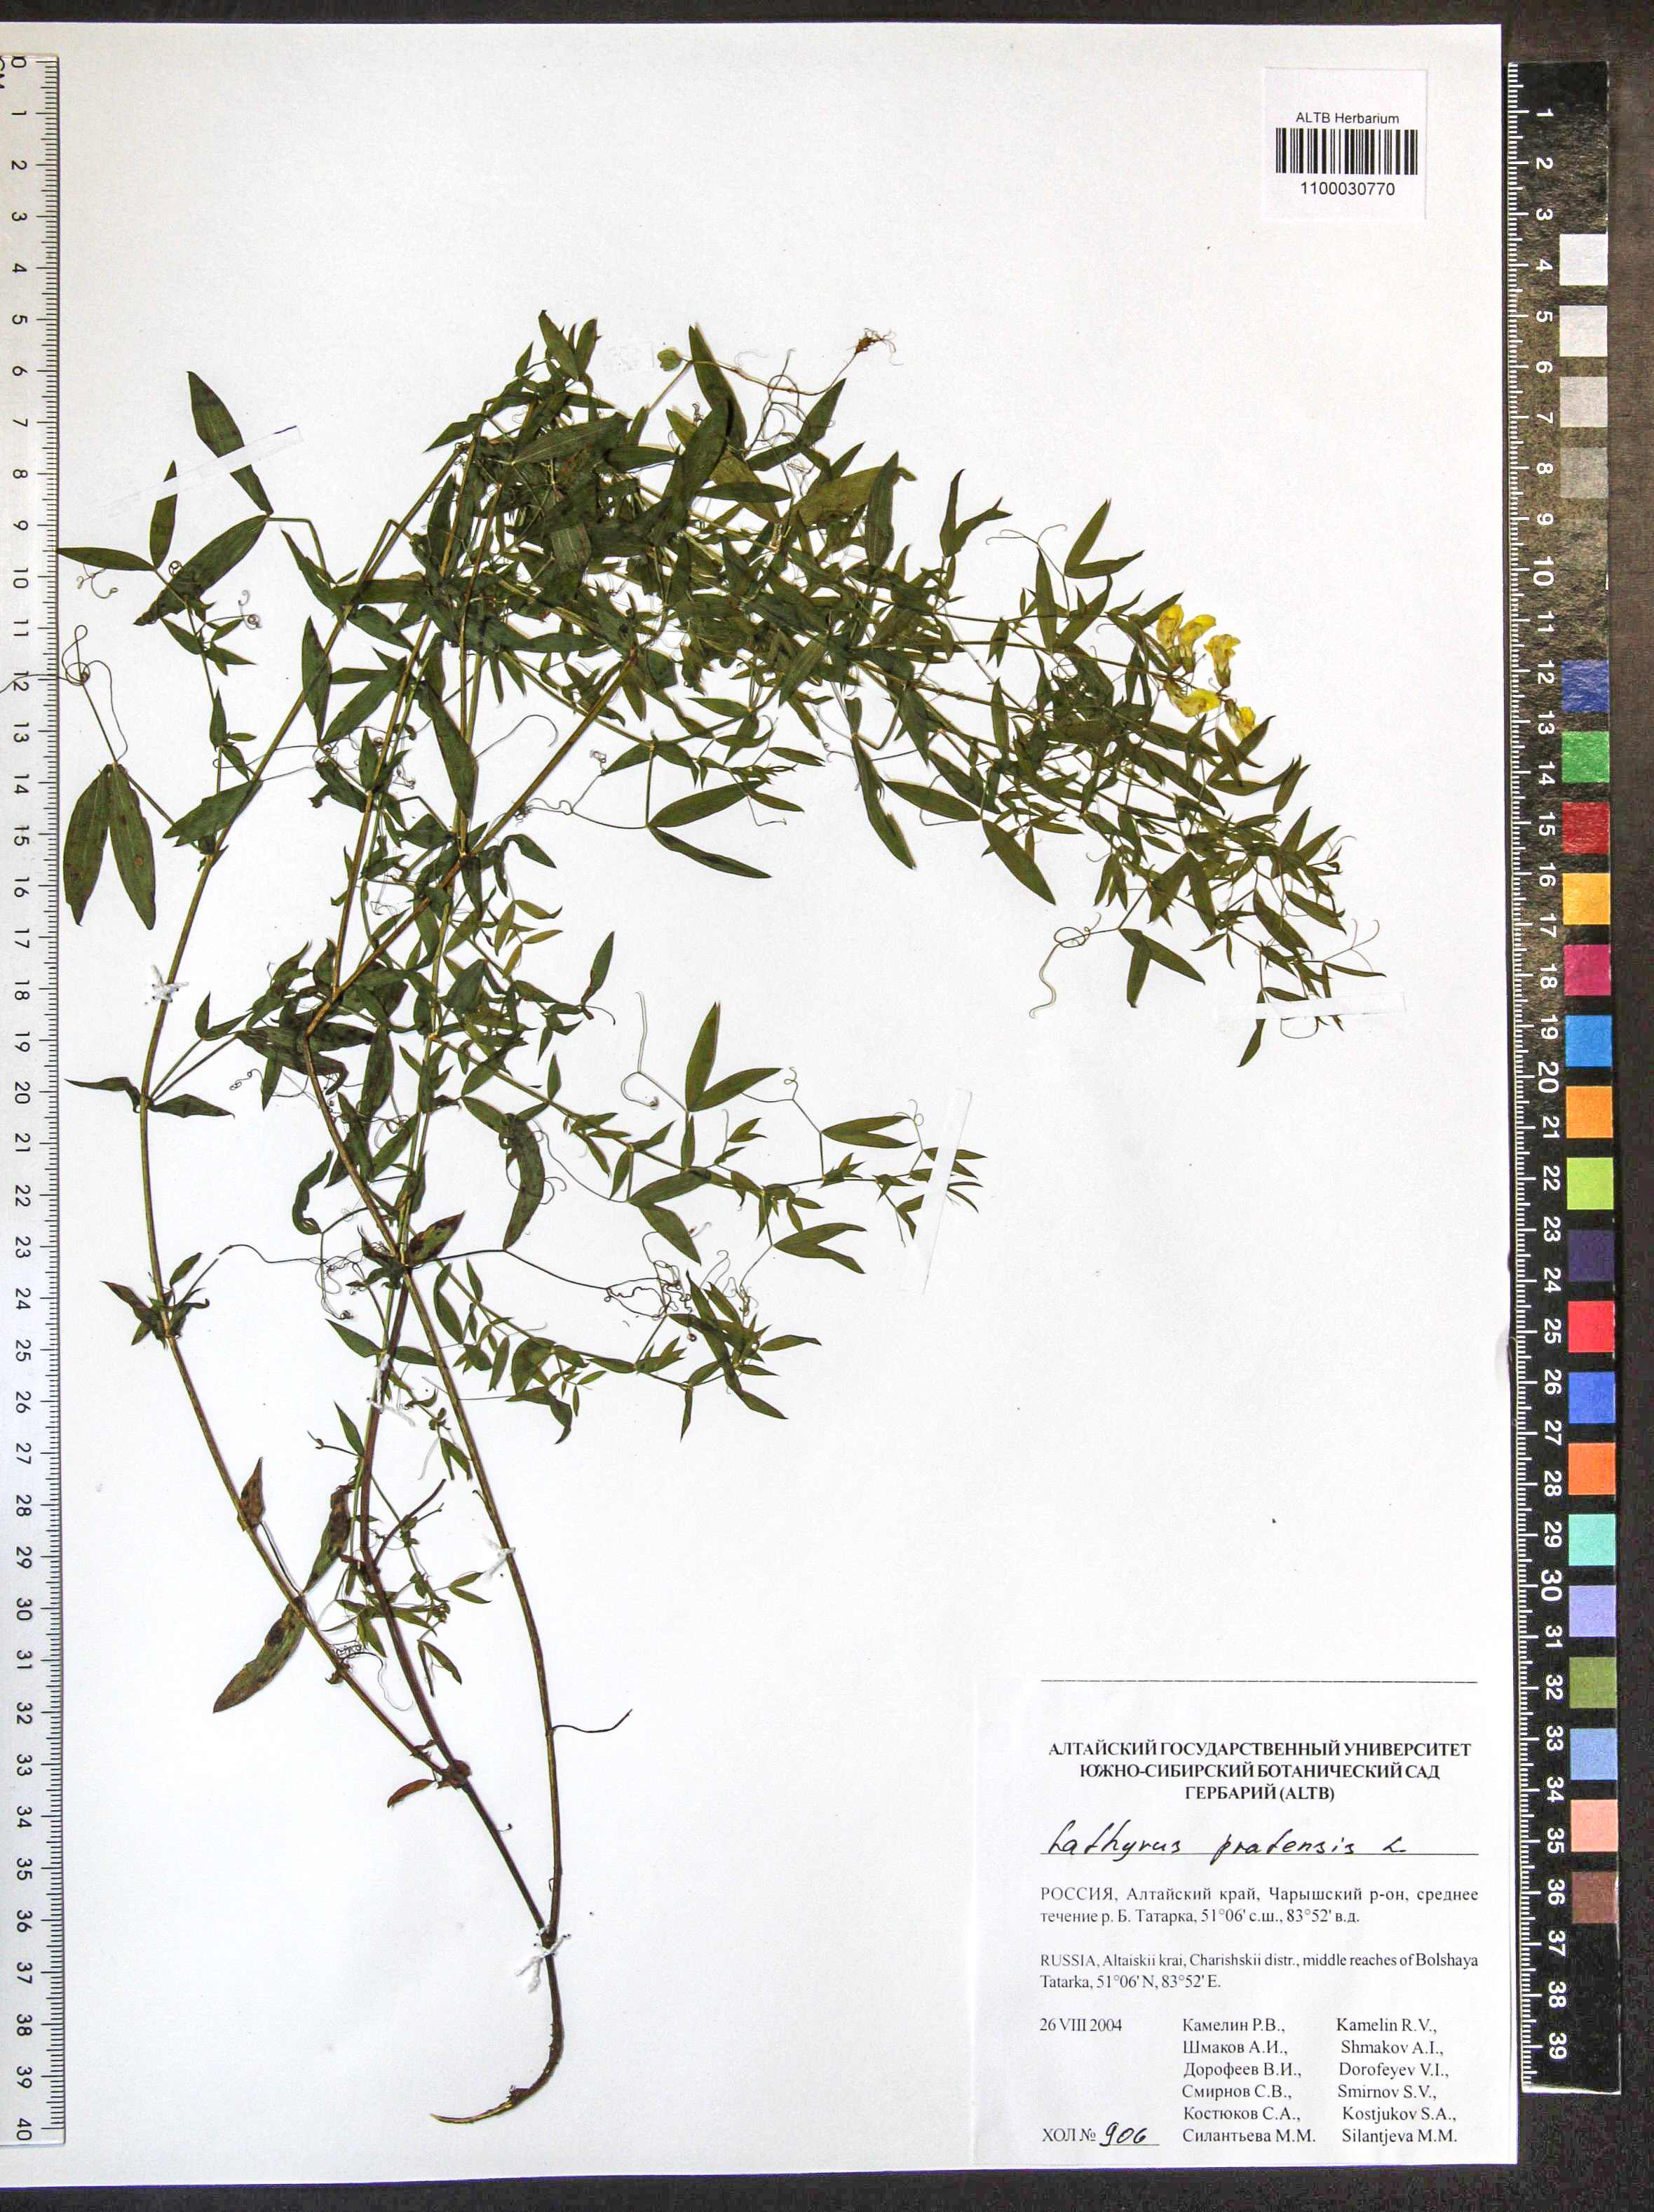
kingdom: Plantae
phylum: Tracheophyta
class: Magnoliopsida
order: Fabales
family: Fabaceae
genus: Lathyrus
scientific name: Lathyrus pratensis
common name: Meadow vetchling
